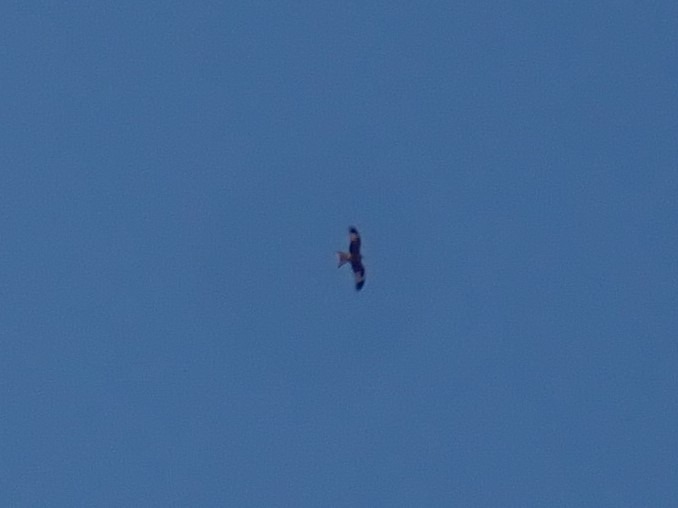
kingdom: Animalia
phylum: Chordata
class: Aves
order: Accipitriformes
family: Accipitridae
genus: Milvus
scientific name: Milvus milvus
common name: Rød glente
